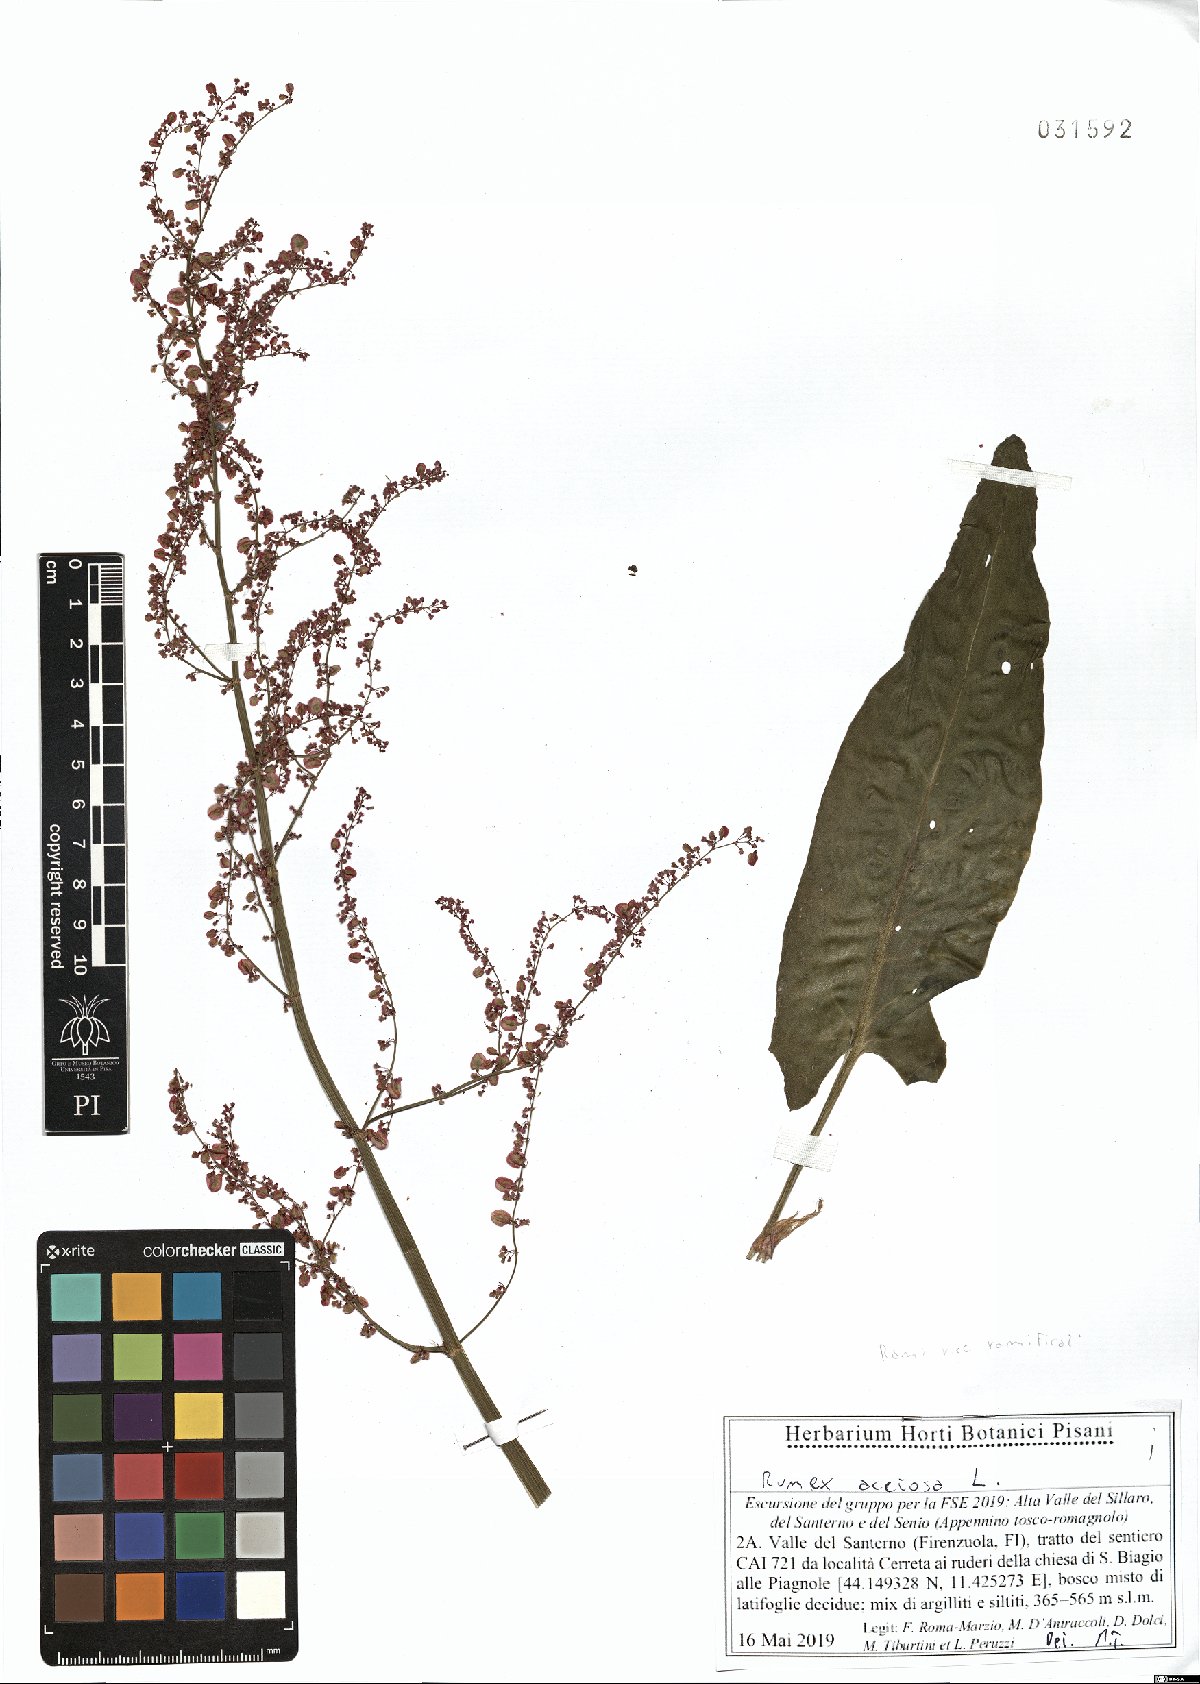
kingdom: Plantae
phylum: Tracheophyta
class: Magnoliopsida
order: Caryophyllales
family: Polygonaceae
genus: Rumex
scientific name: Rumex acetosa
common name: Garden sorrel
